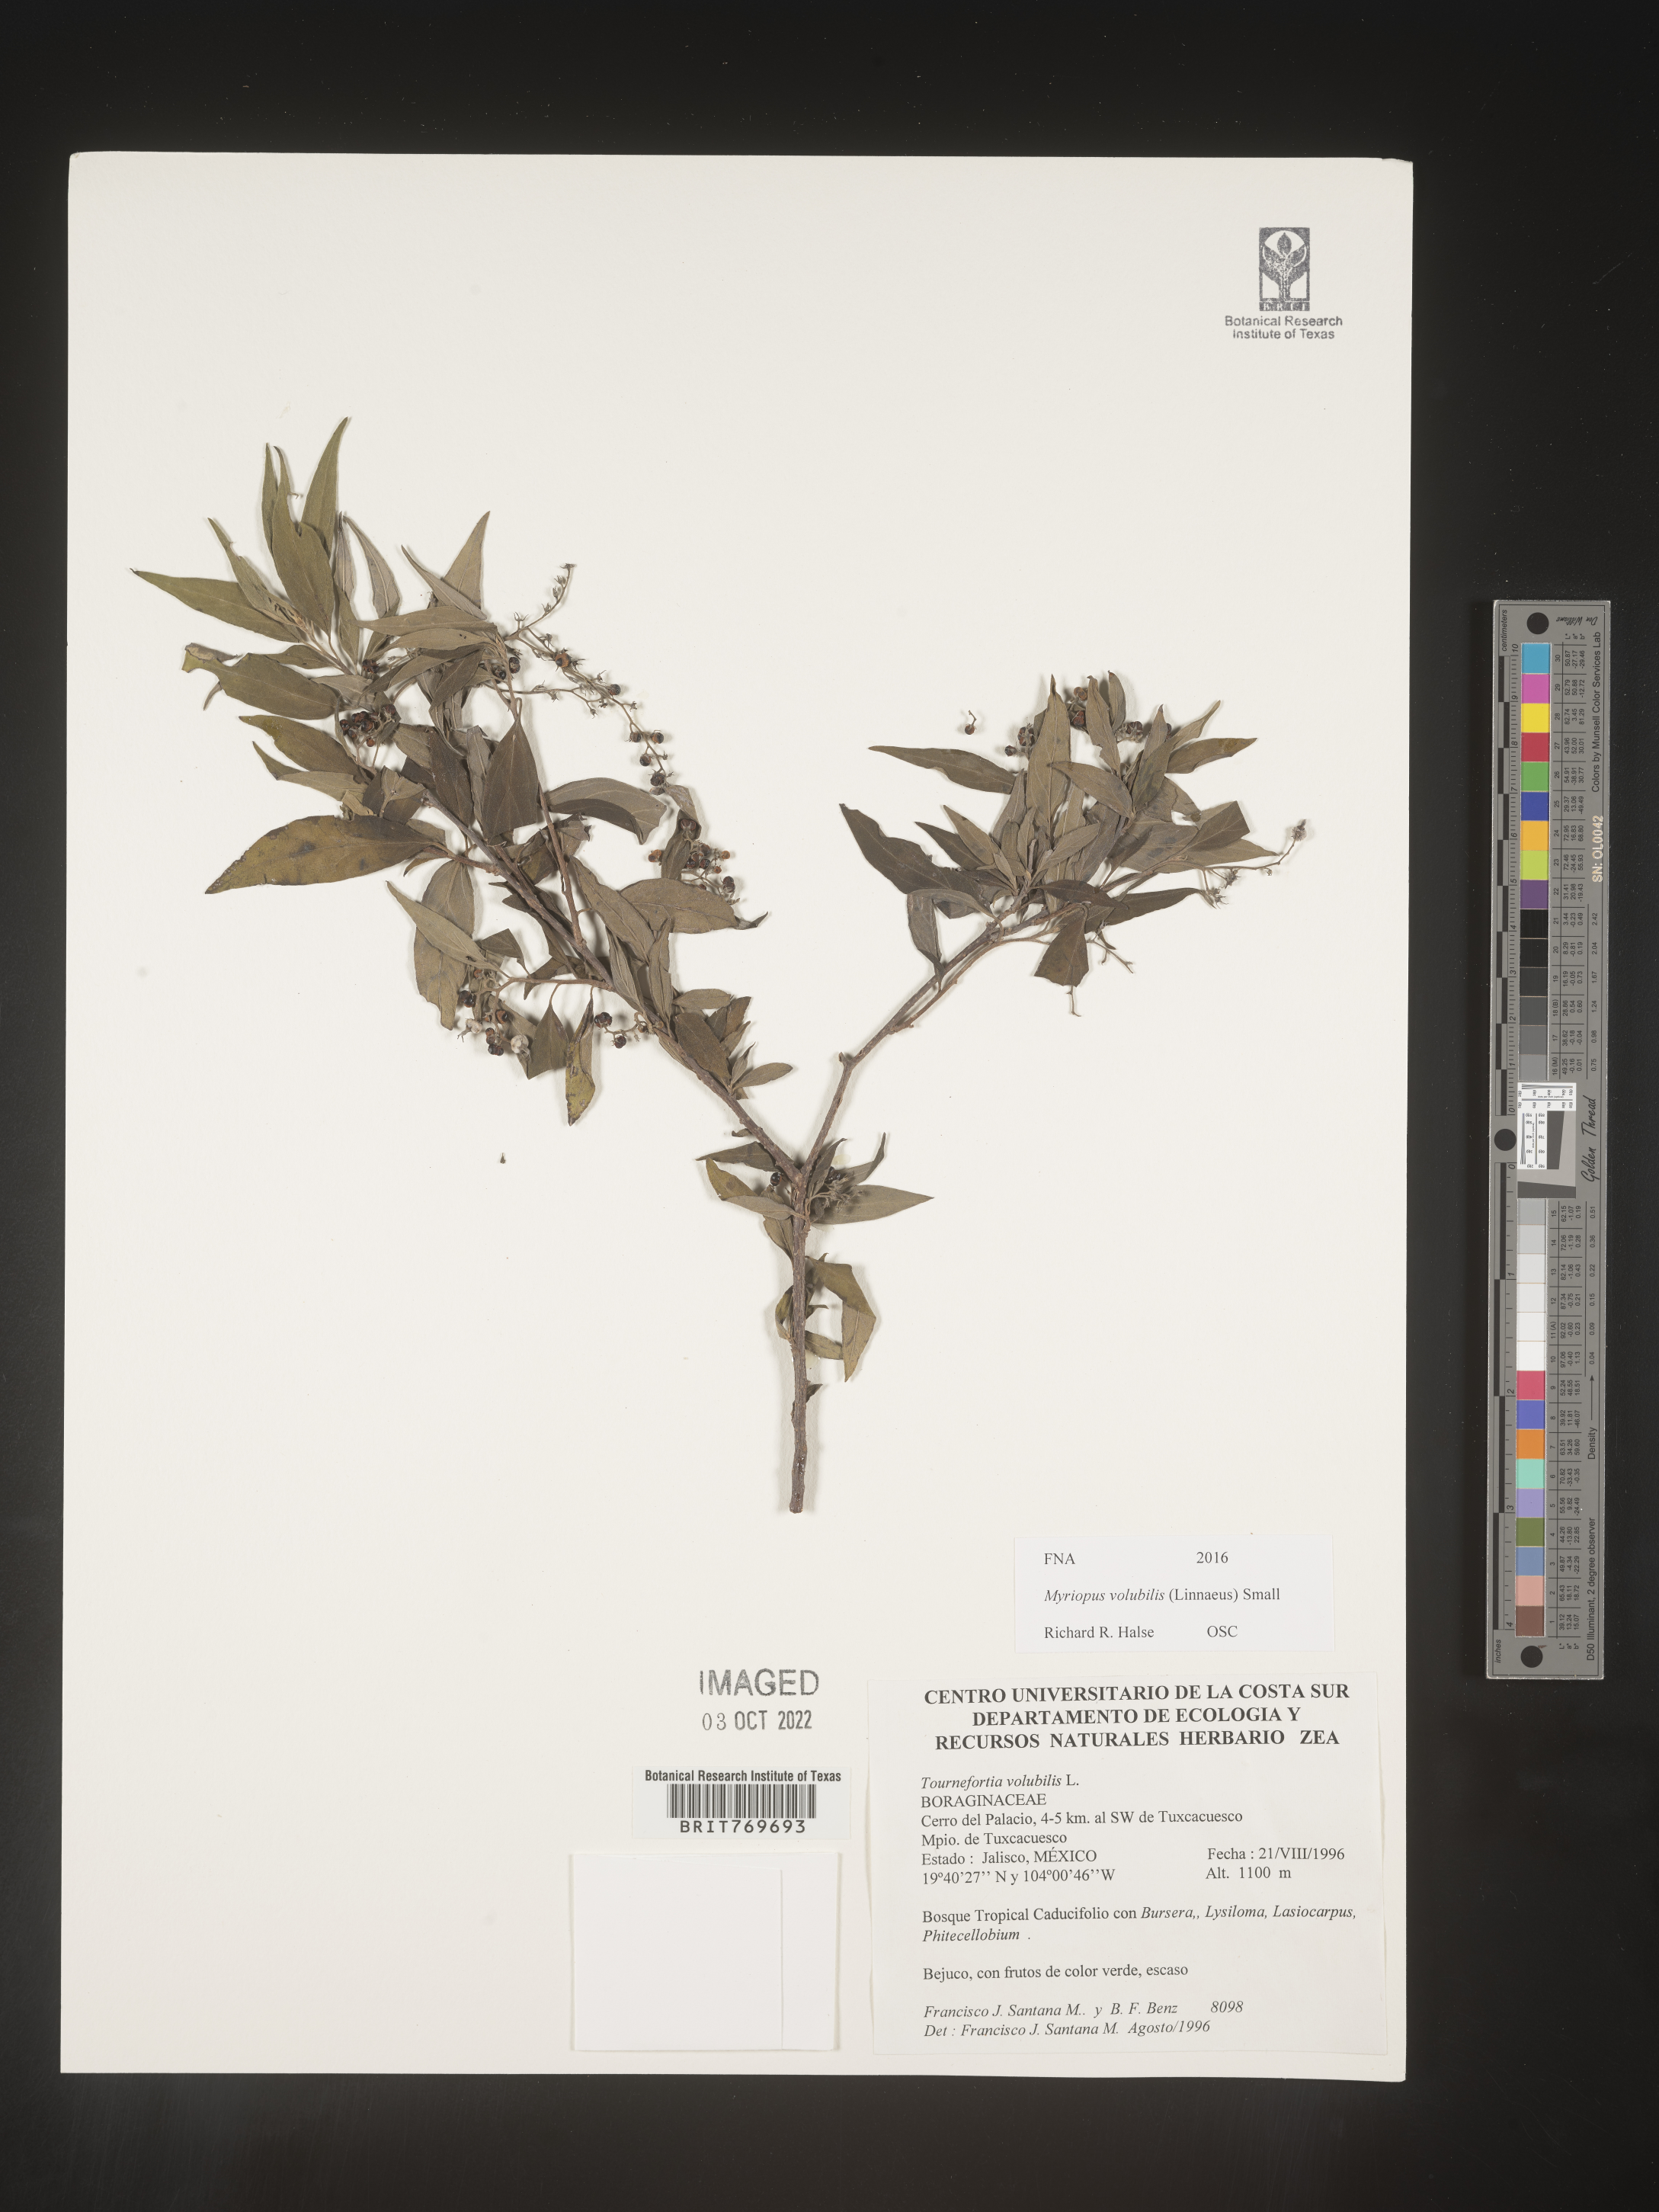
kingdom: Plantae
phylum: Tracheophyta
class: Magnoliopsida
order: Boraginales
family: Heliotropiaceae
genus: Myriopus
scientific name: Myriopus
